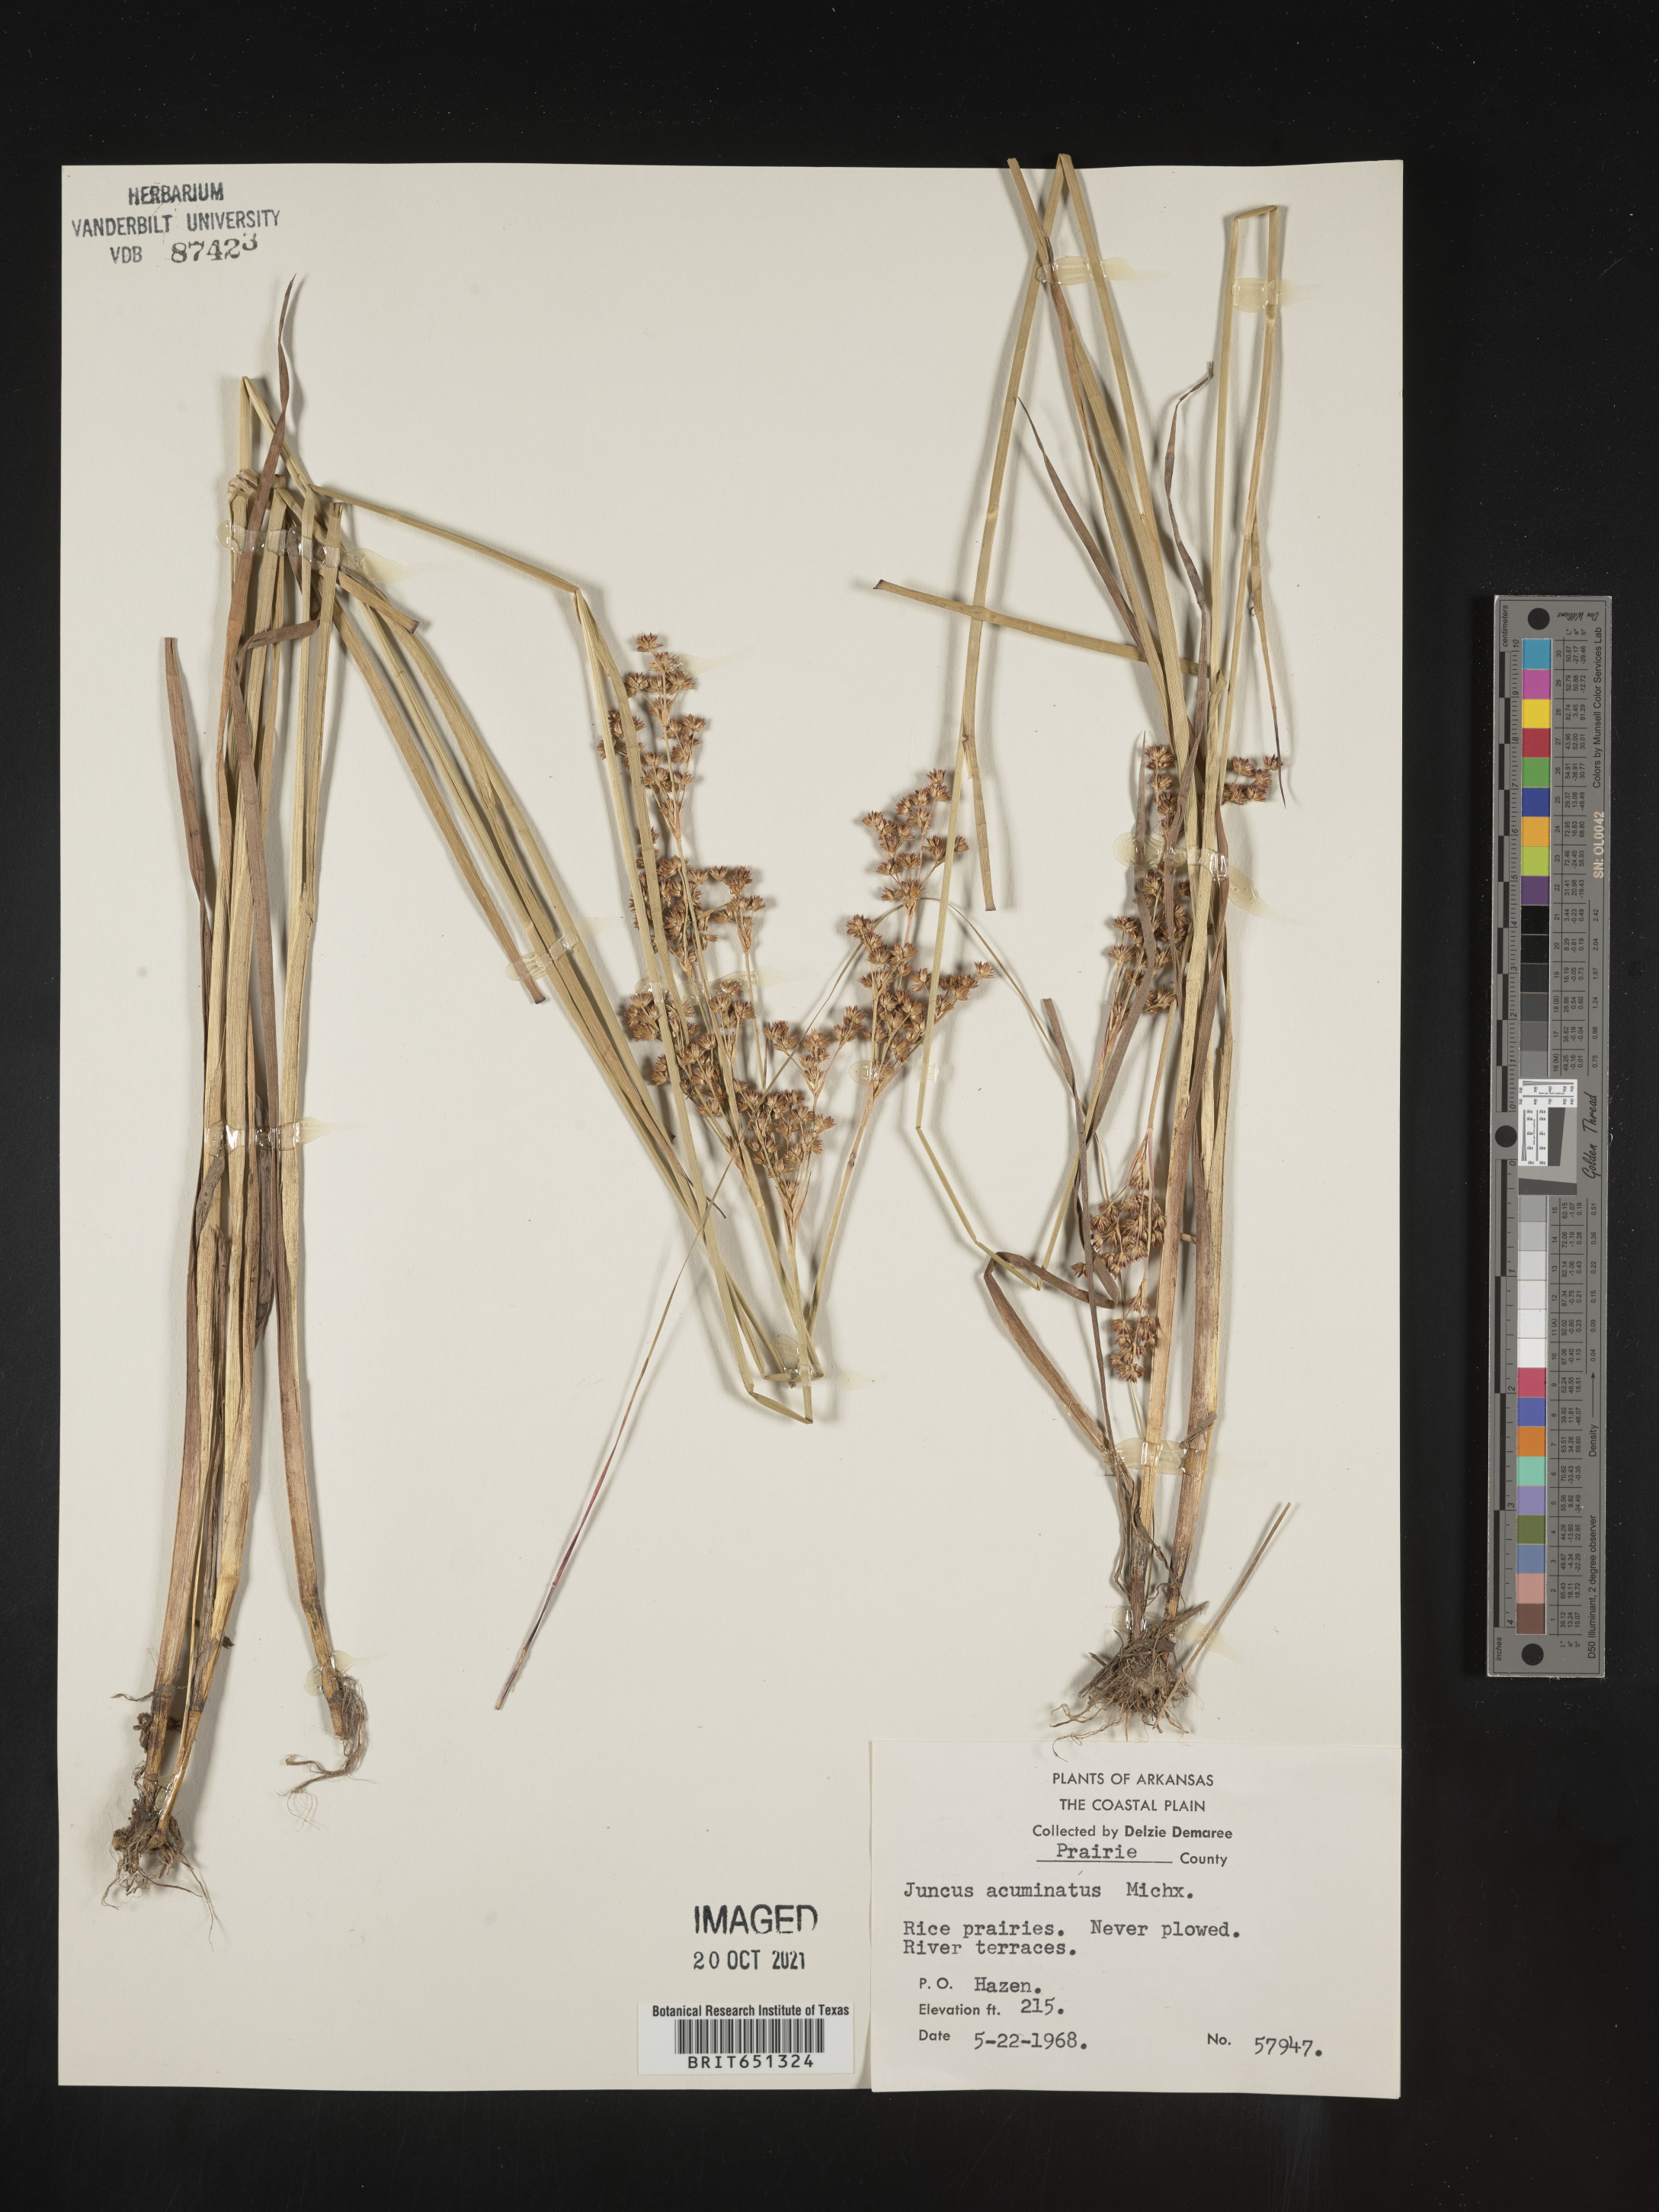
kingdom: Plantae
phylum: Tracheophyta
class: Liliopsida
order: Poales
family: Juncaceae
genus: Juncus
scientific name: Juncus acuminatus
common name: Knotty-leaved rush
